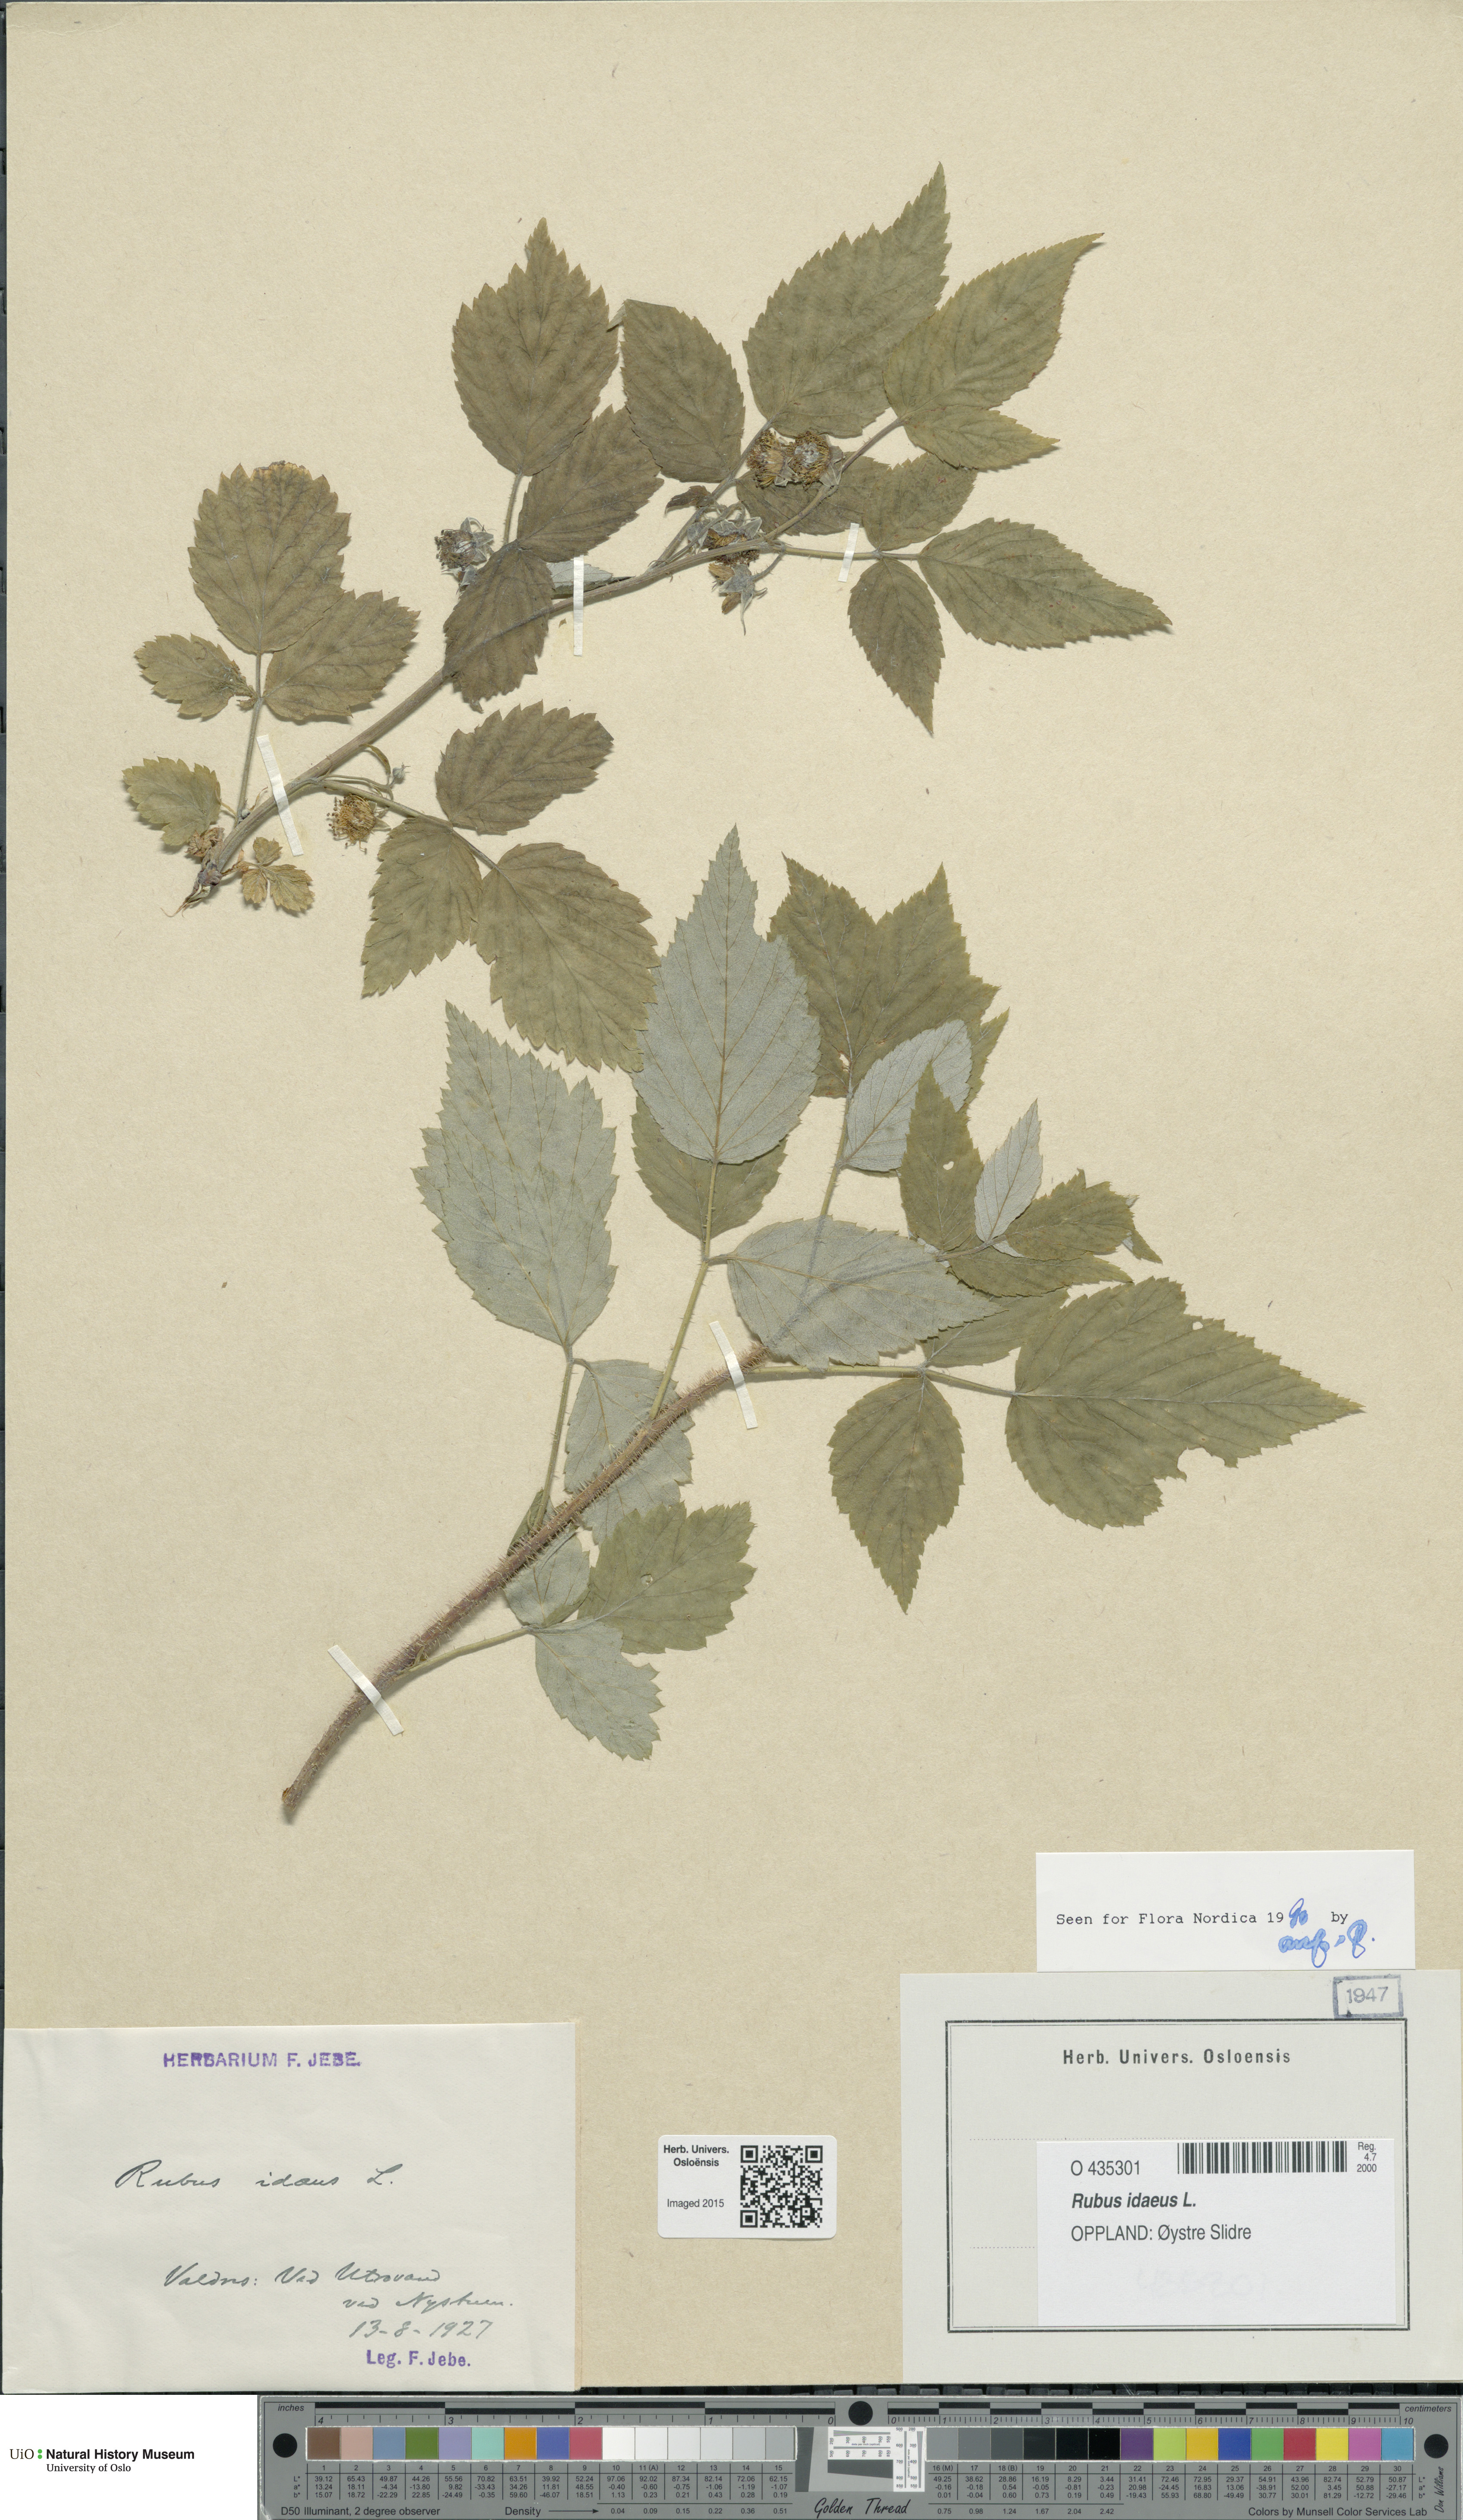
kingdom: Plantae
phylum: Tracheophyta
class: Magnoliopsida
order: Rosales
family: Rosaceae
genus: Rubus
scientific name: Rubus idaeus
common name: Raspberry
